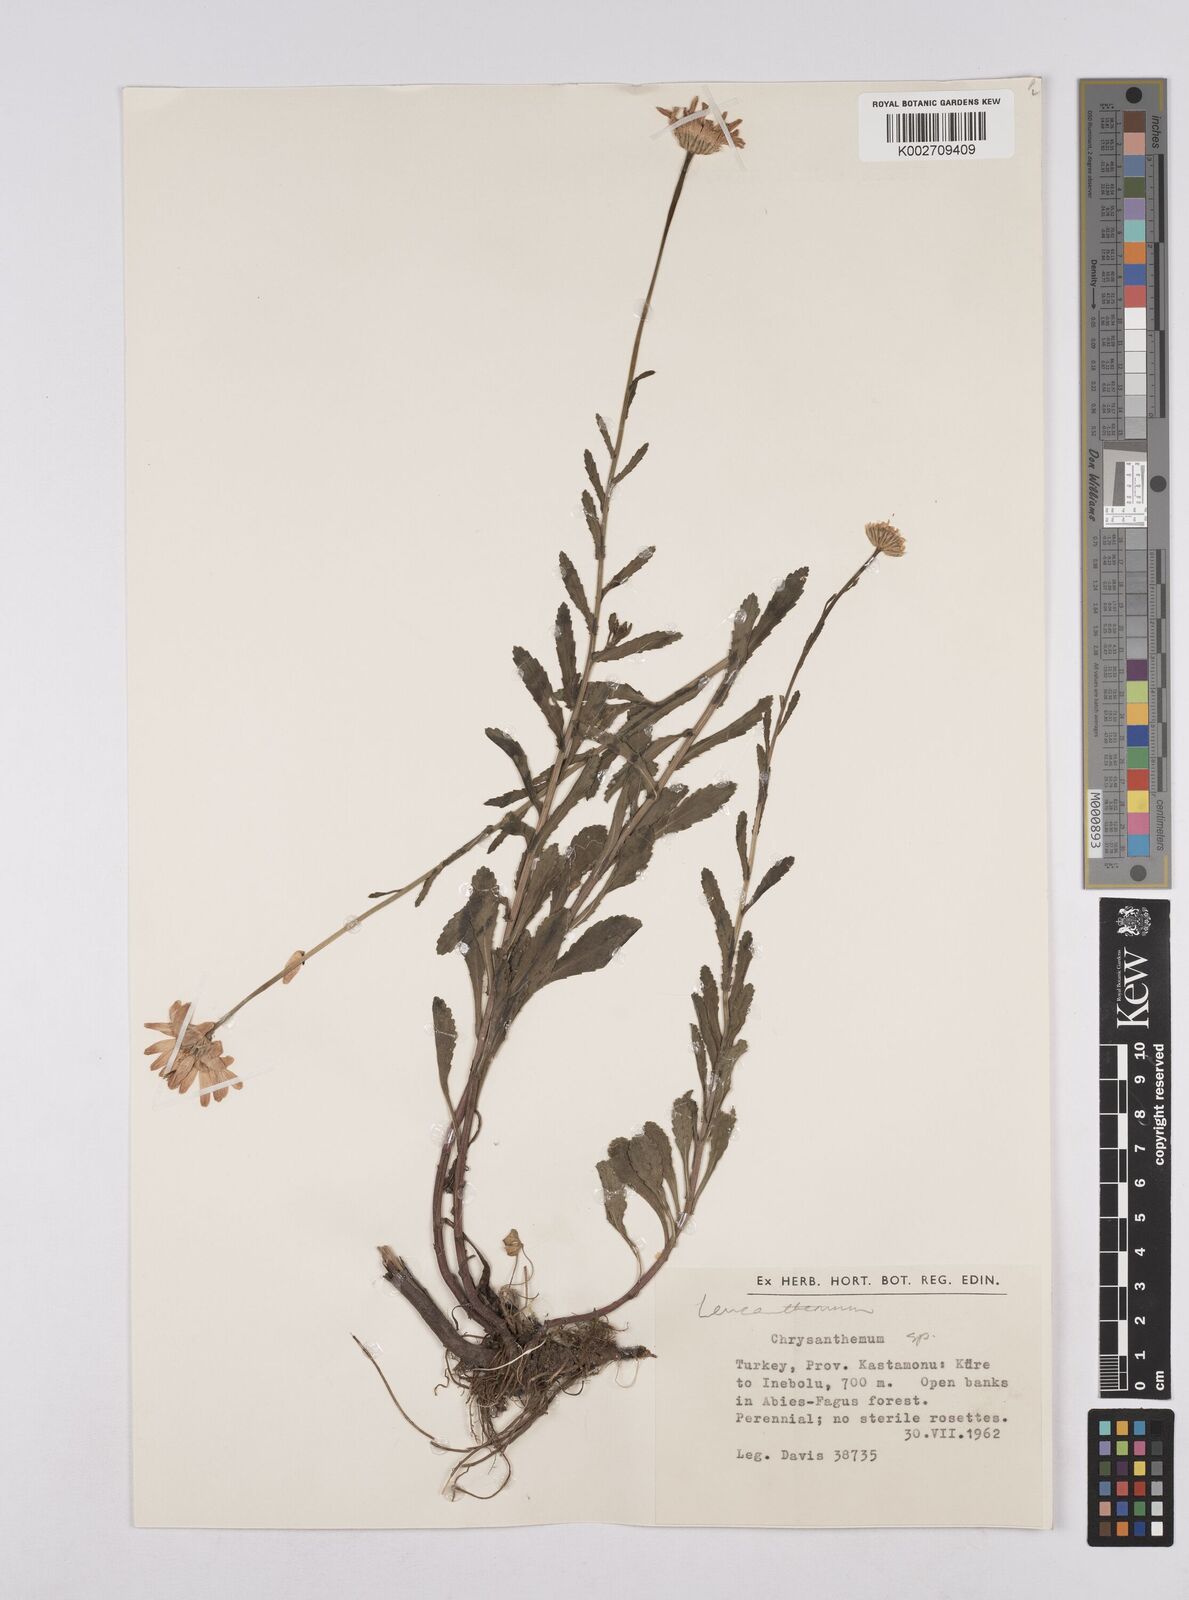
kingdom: Plantae
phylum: Tracheophyta
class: Magnoliopsida
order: Asterales
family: Asteraceae
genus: Leucanthemum
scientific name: Leucanthemum
